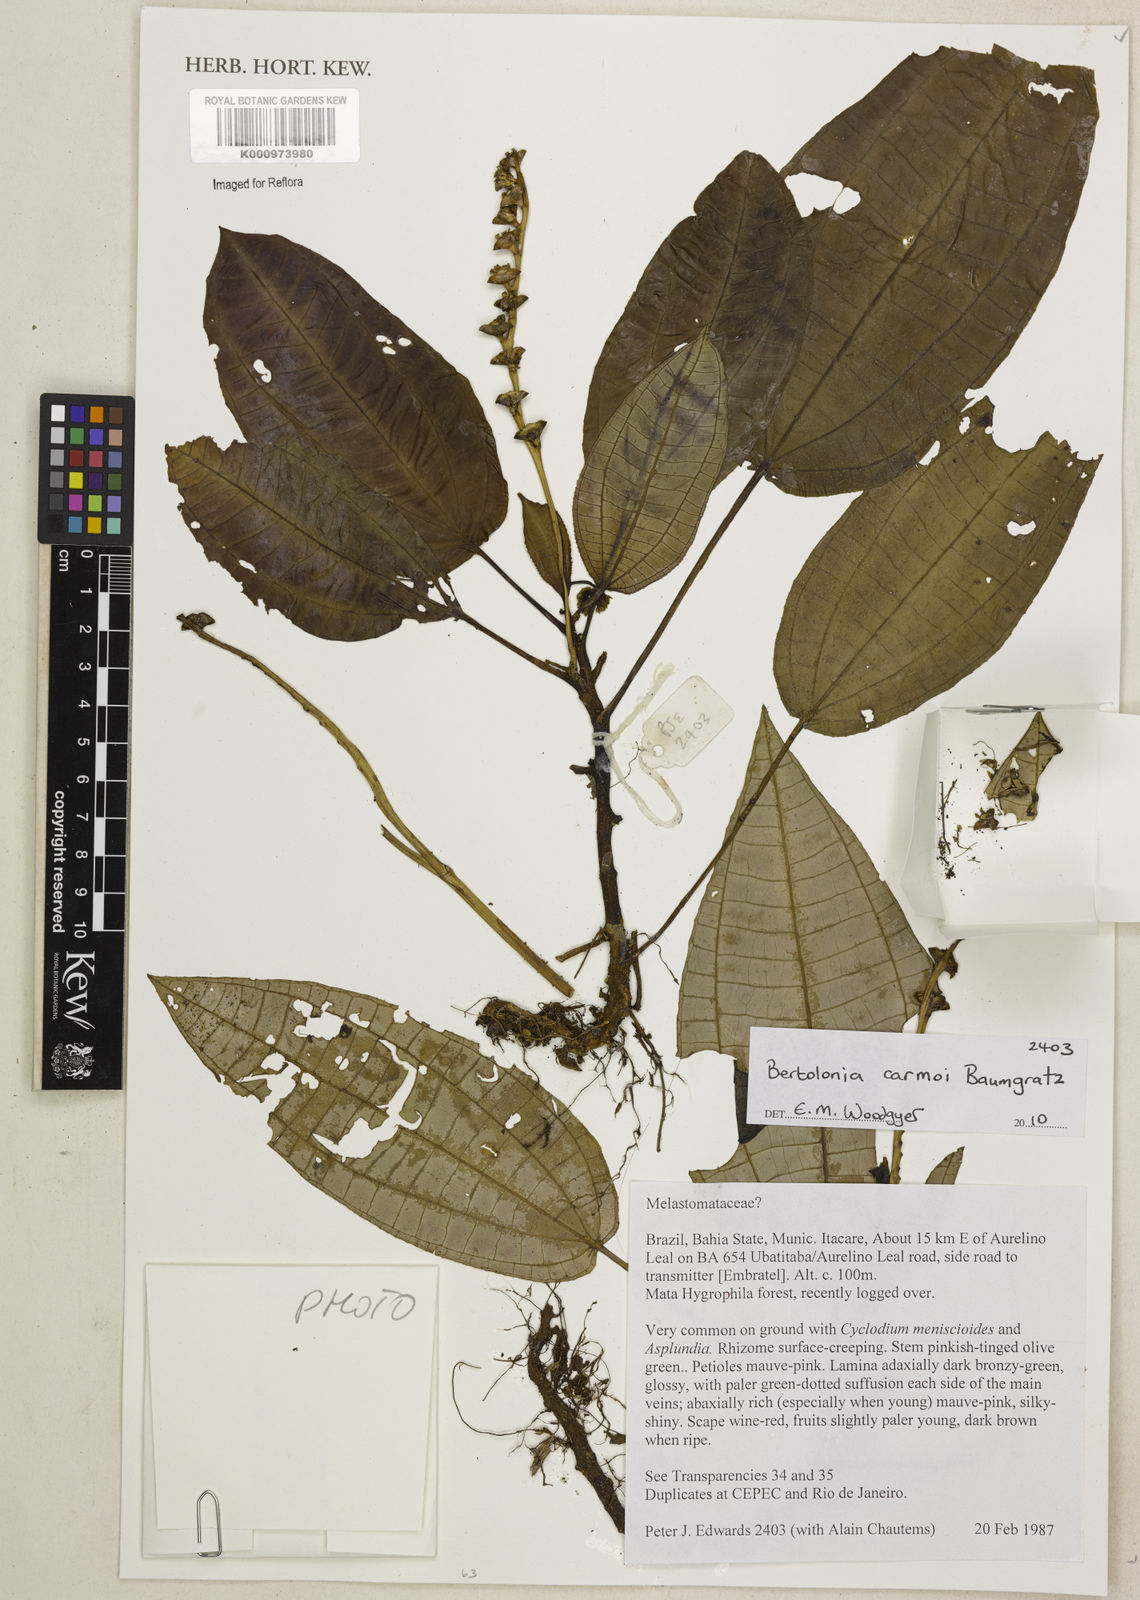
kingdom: Plantae
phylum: Tracheophyta
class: Magnoliopsida
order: Myrtales
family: Melastomataceae
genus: Bertolonia
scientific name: Bertolonia carmoi
